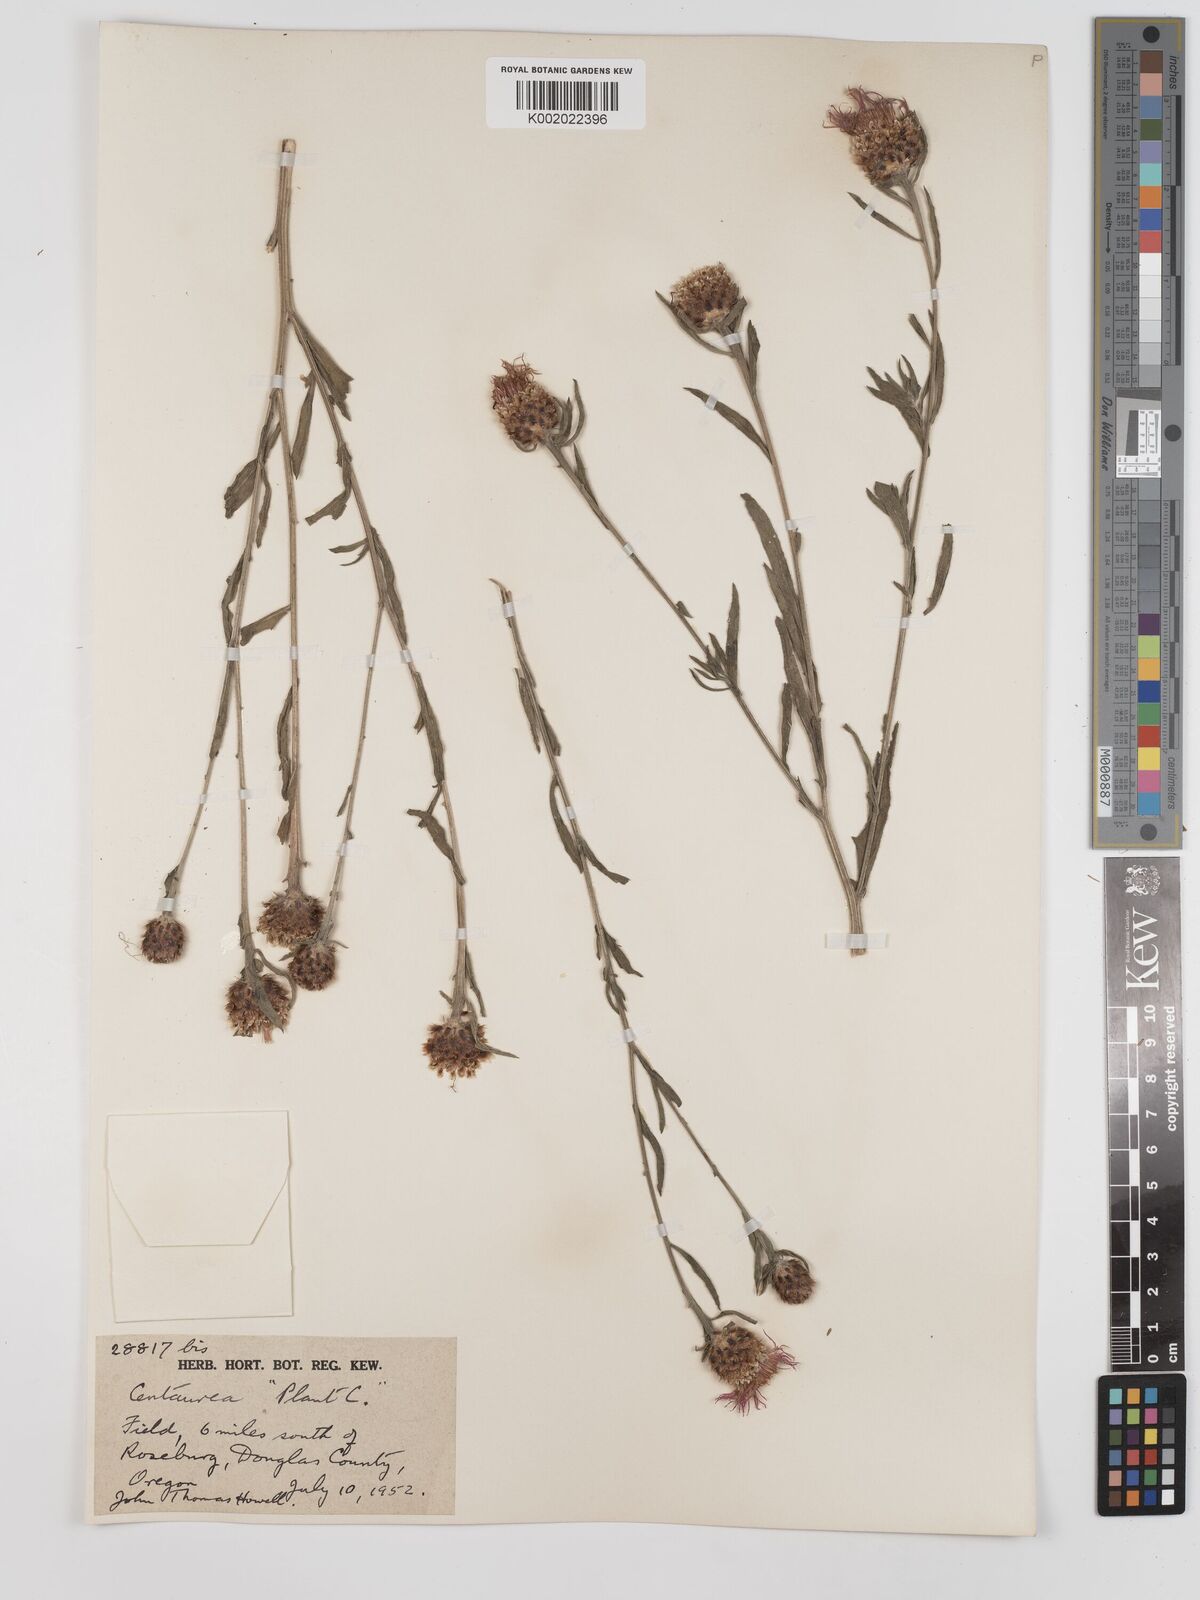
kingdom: Plantae
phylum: Tracheophyta
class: Magnoliopsida
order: Asterales
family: Asteraceae
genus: Centaurea
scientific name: Centaurea jacea
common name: Brown knapweed
